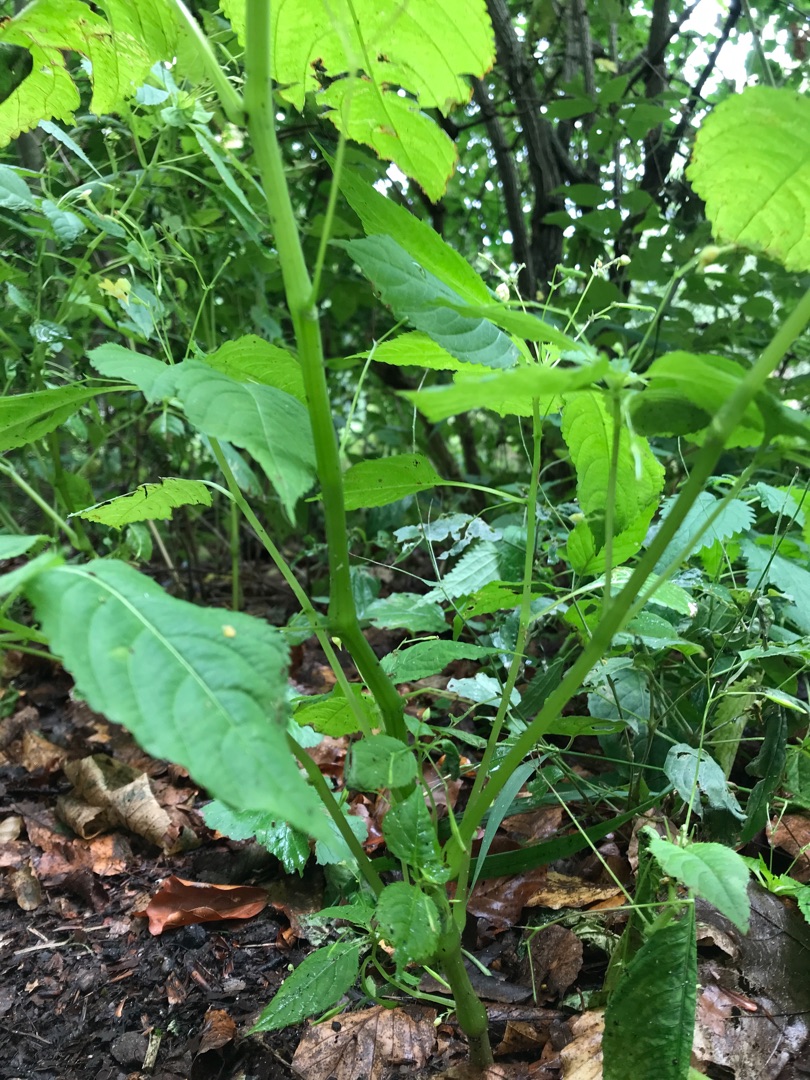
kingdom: Plantae
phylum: Tracheophyta
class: Magnoliopsida
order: Ericales
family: Balsaminaceae
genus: Impatiens
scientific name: Impatiens parviflora
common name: Småblomstret balsamin
